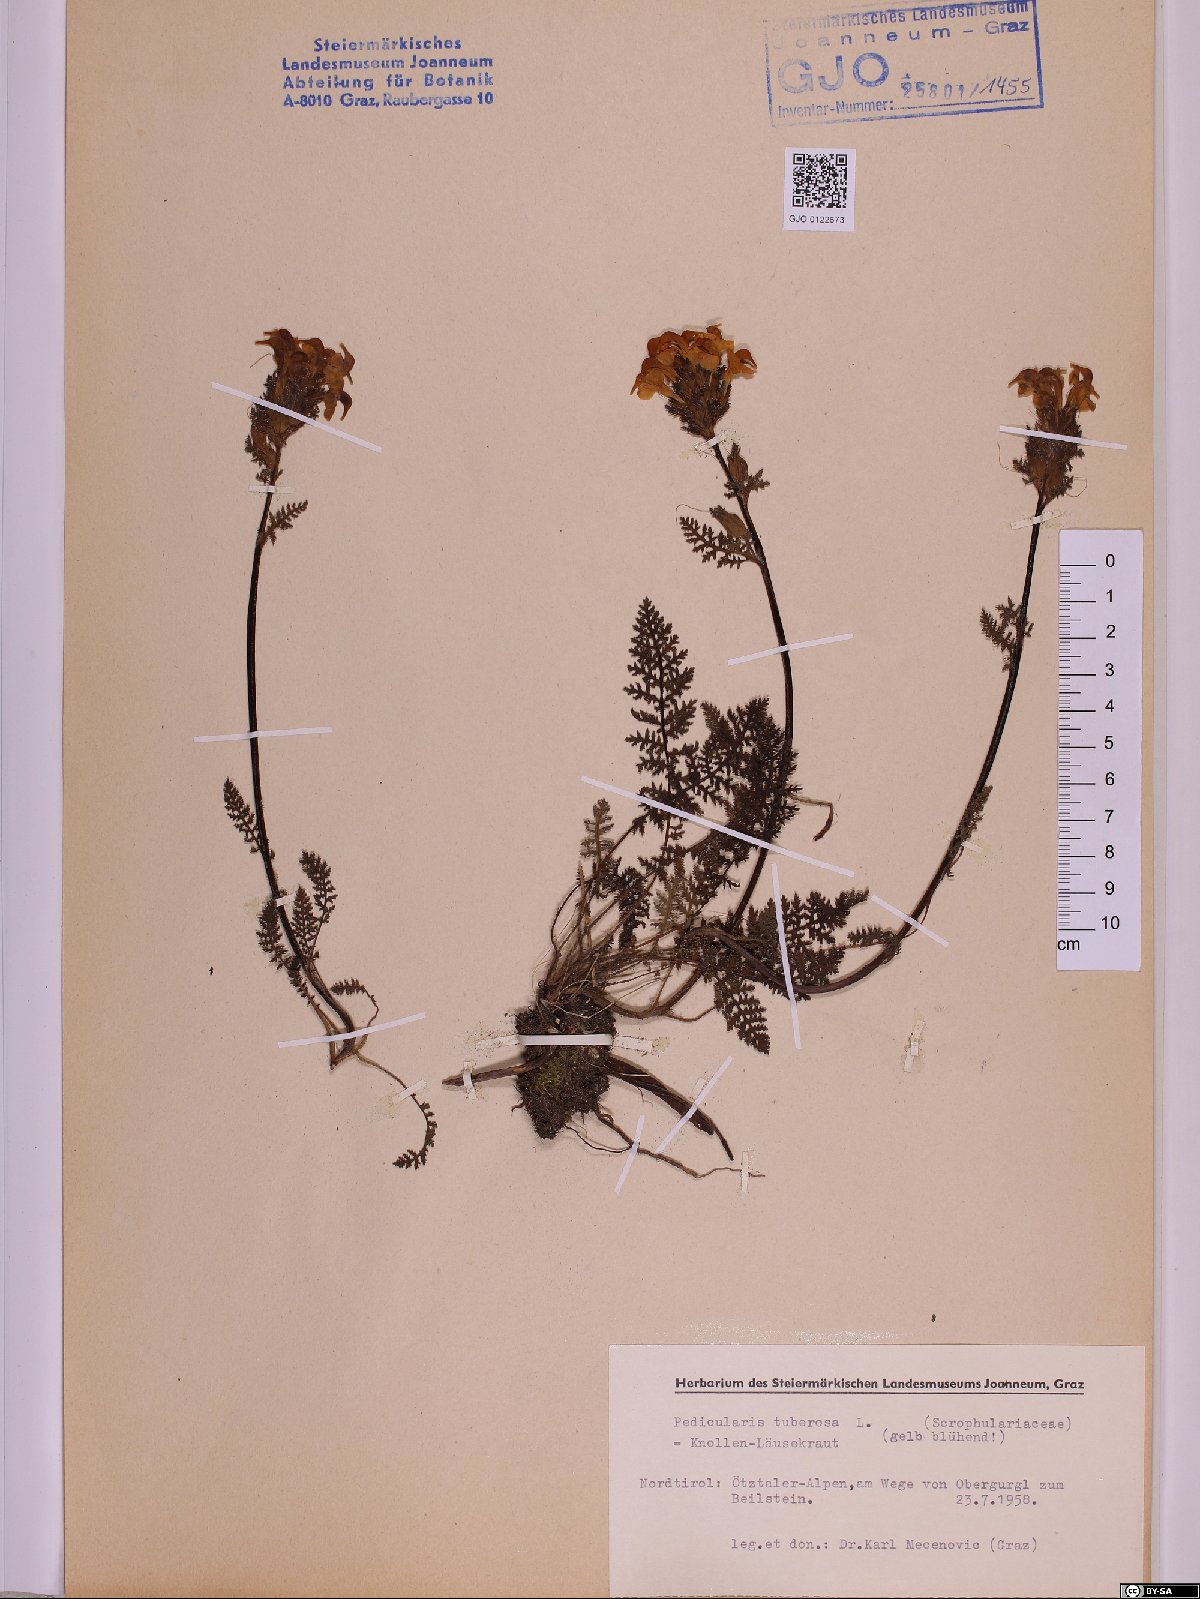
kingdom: Plantae
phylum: Tracheophyta
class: Magnoliopsida
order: Lamiales
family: Orobanchaceae
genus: Pedicularis
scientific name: Pedicularis tuberosa
